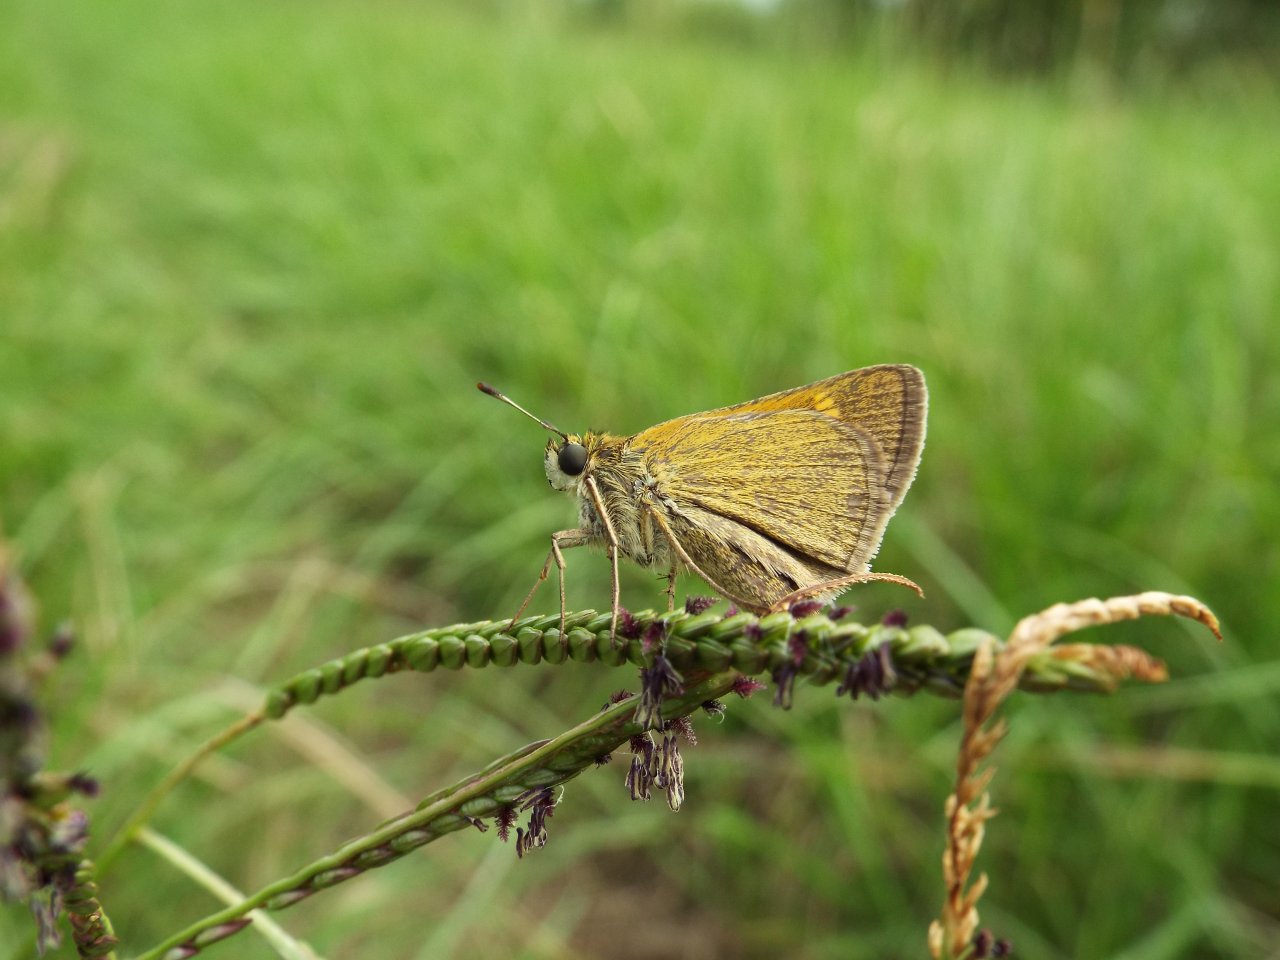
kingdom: Animalia
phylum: Arthropoda
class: Insecta
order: Lepidoptera
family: Hesperiidae
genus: Polites
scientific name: Polites themistocles
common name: Tawny-edged Skipper
